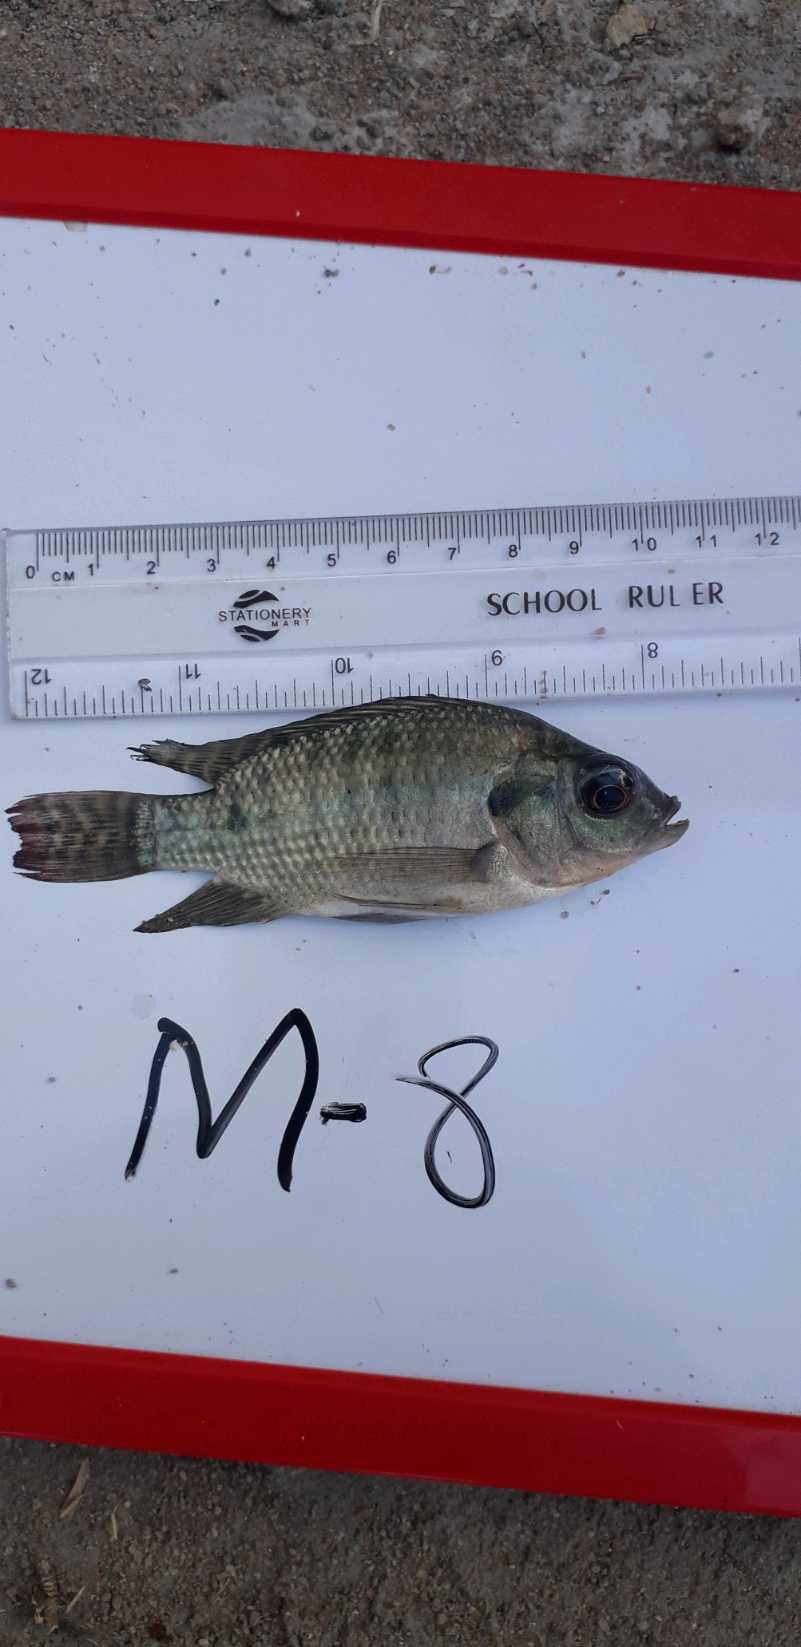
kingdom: Animalia
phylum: Chordata
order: Perciformes
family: Cichlidae
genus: Oreochromis
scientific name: Oreochromis niloticus
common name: Nile tilapia
